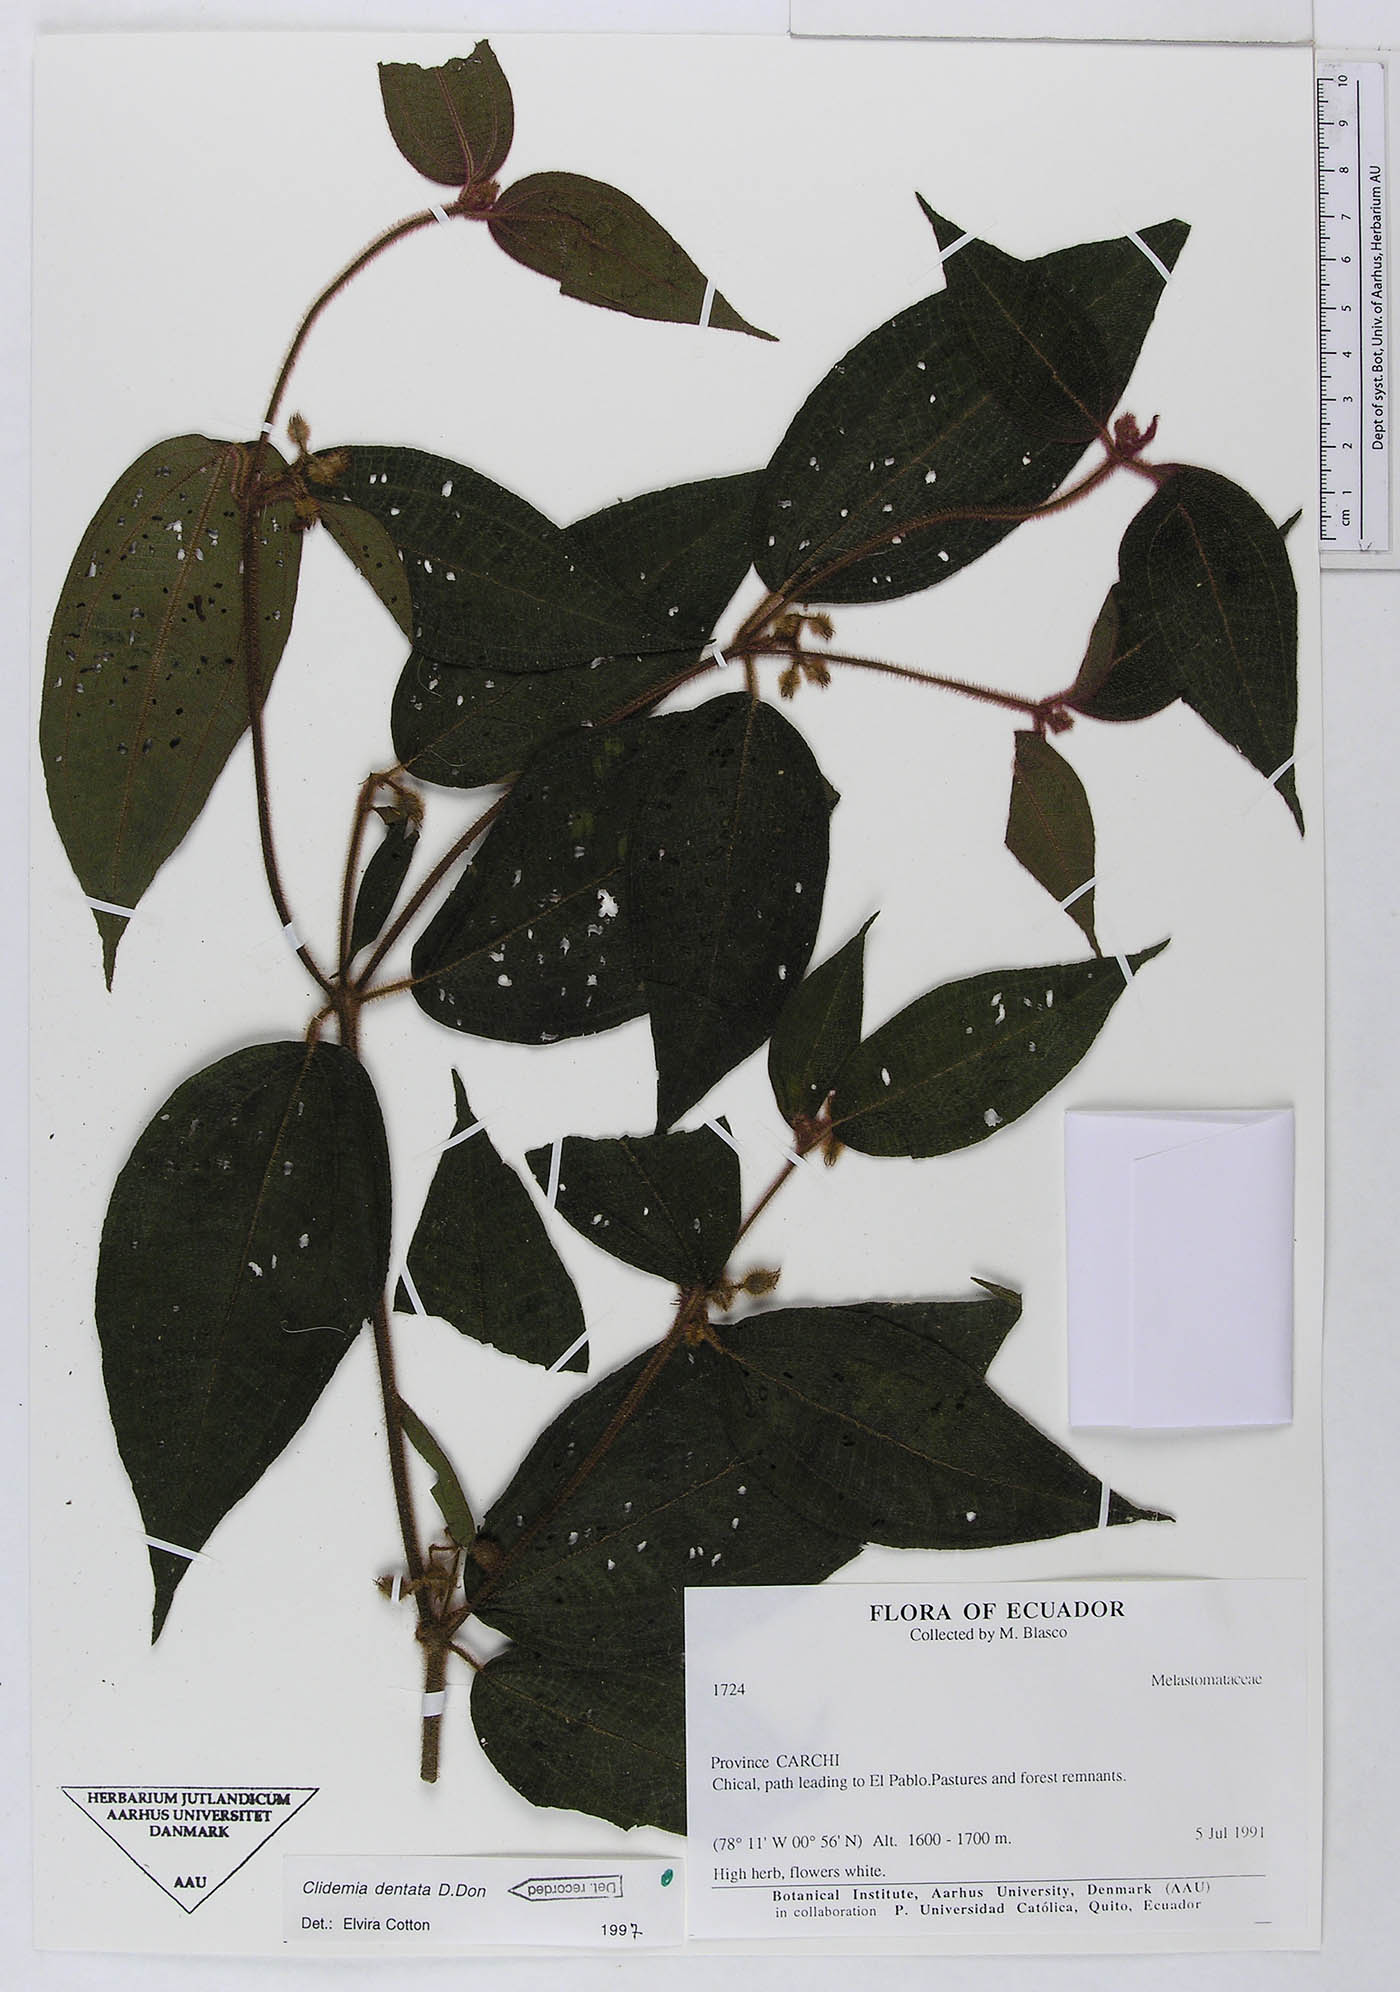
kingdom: Plantae
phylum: Tracheophyta
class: Magnoliopsida
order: Myrtales
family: Melastomataceae
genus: Miconia
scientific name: Miconia dentata
